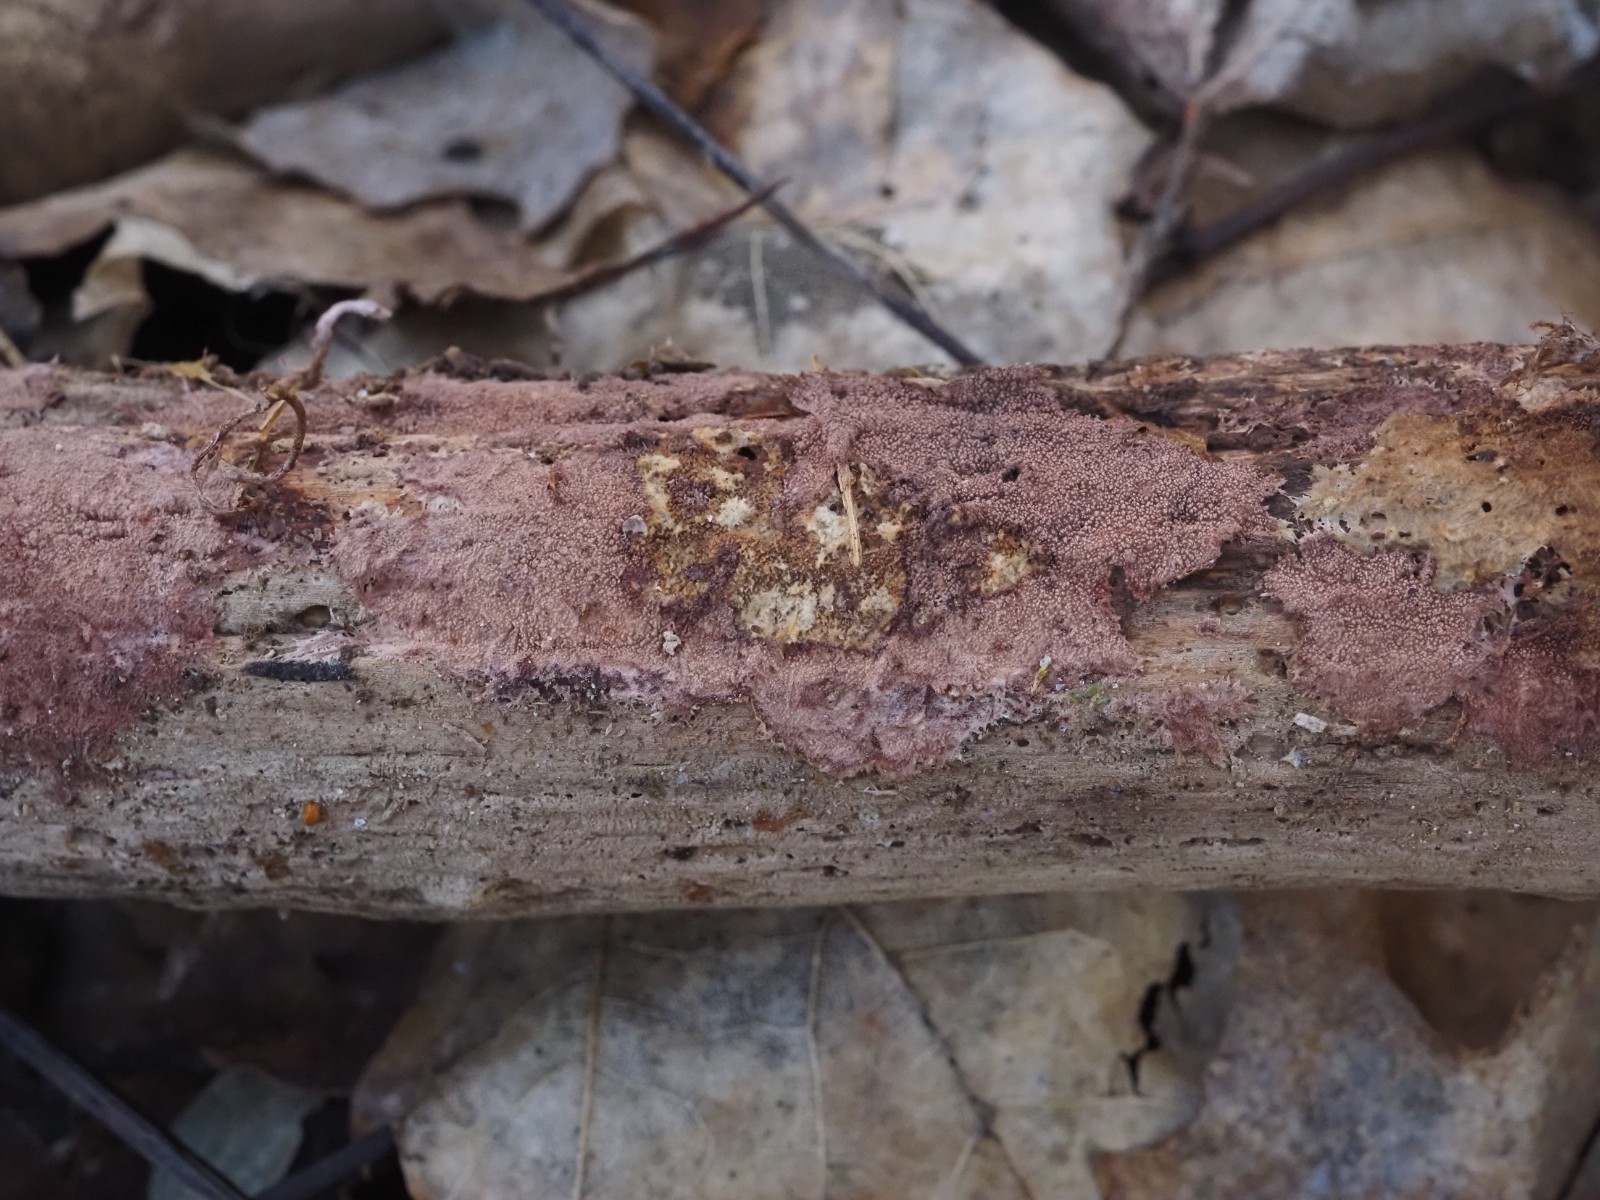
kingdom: Fungi
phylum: Basidiomycota
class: Agaricomycetes
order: Polyporales
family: Steccherinaceae
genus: Steccherinum
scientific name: Steccherinum fimbriatum
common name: trådet skønpig
